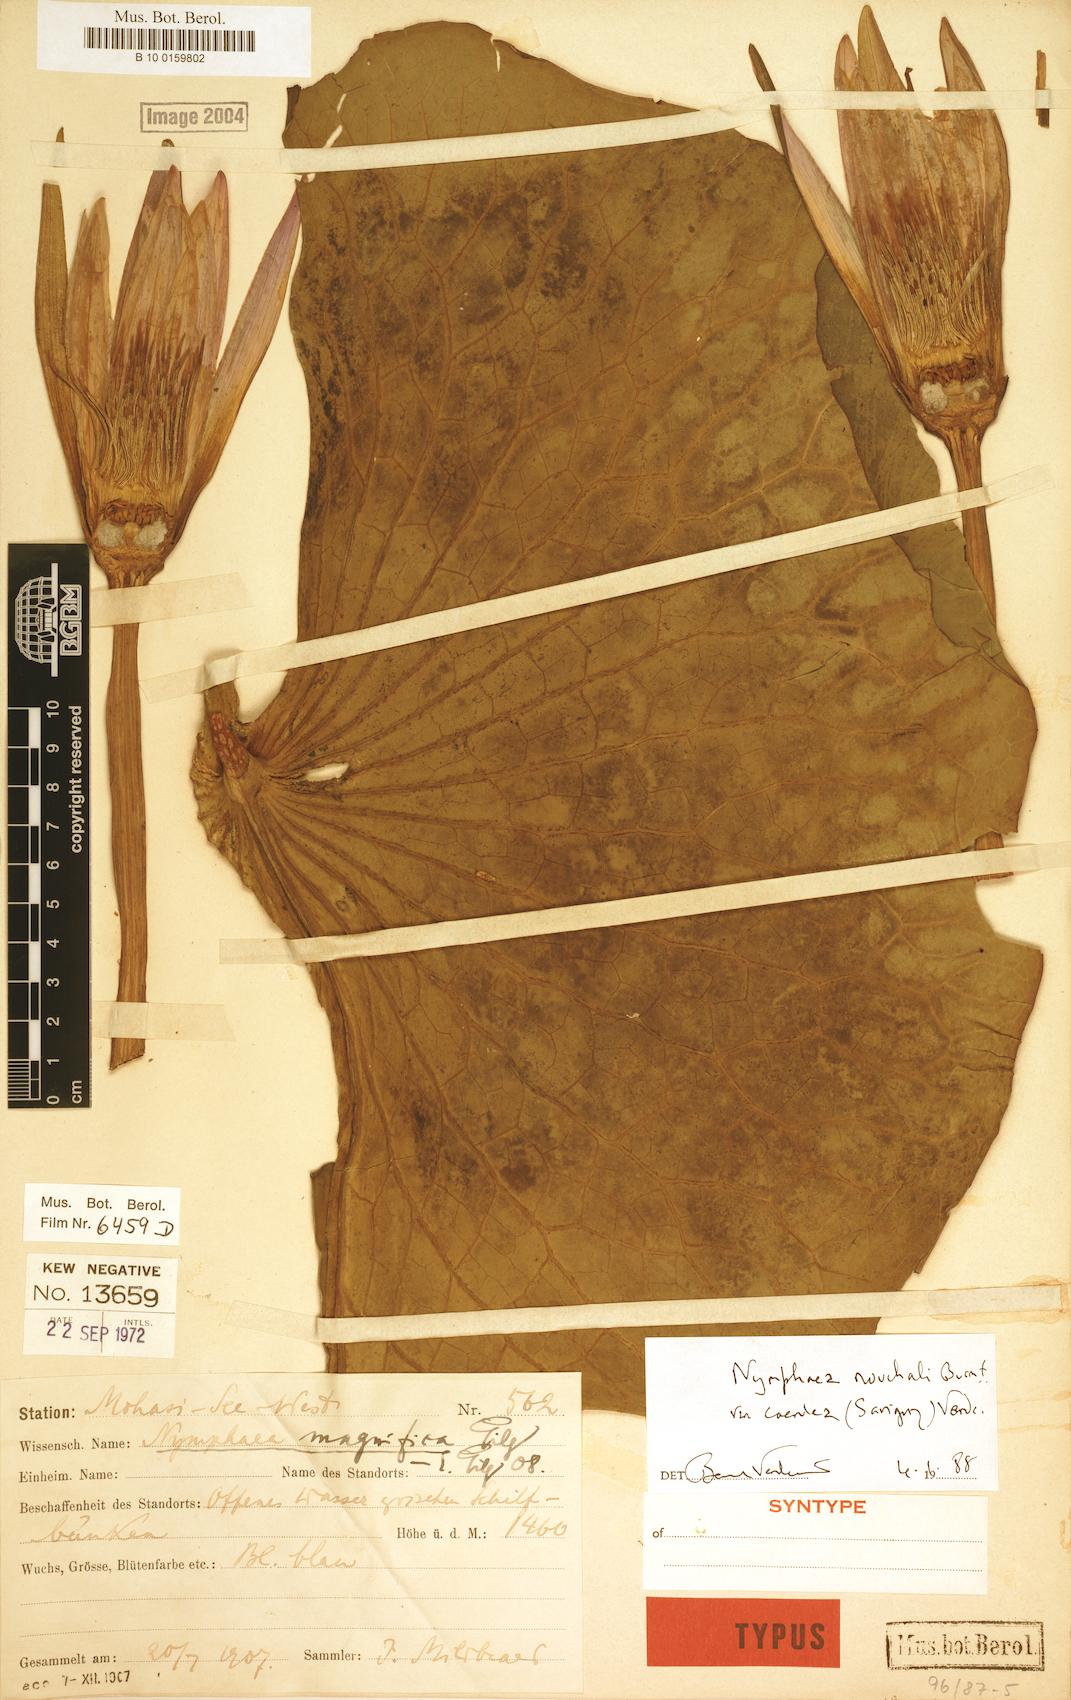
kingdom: Plantae
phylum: Tracheophyta
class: Magnoliopsida
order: Nymphaeales
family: Nymphaeaceae
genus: Nymphaea
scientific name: Nymphaea nouchali
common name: Blue lotus
